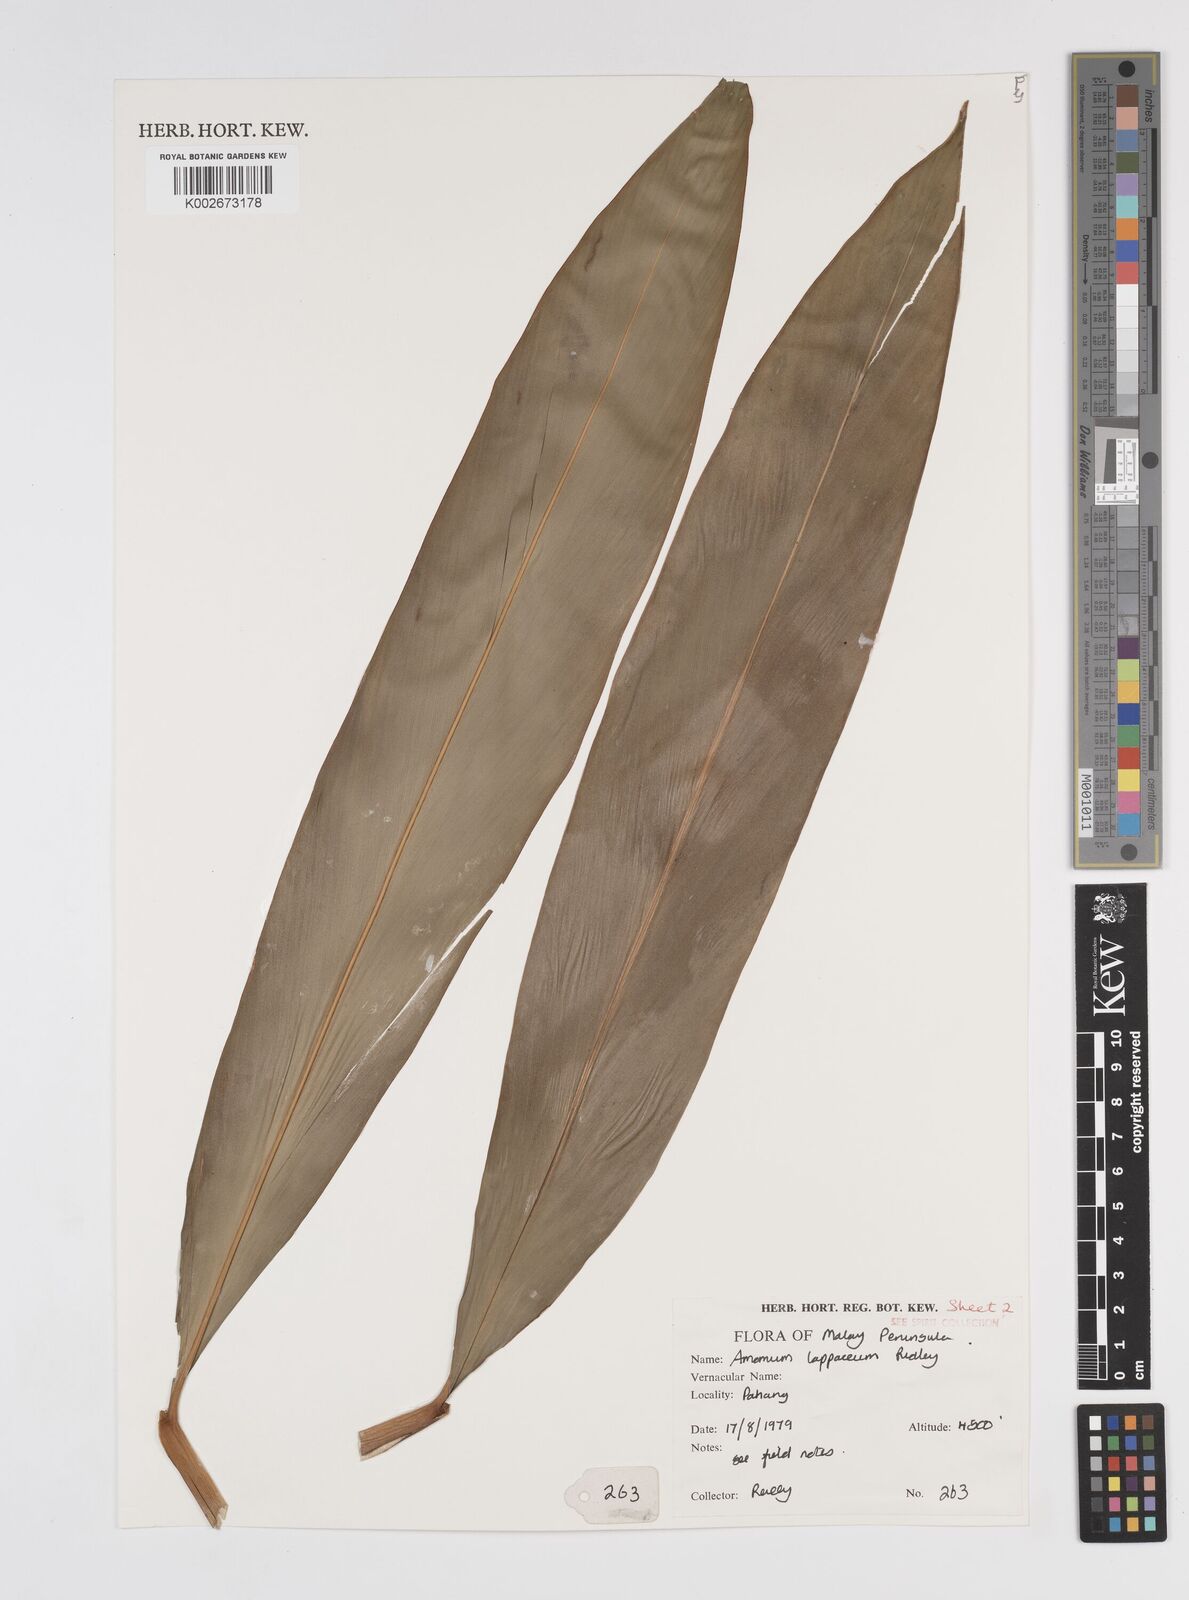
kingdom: Plantae
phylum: Tracheophyta
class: Liliopsida
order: Zingiberales
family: Zingiberaceae
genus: Meistera
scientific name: Meistera lappacea
